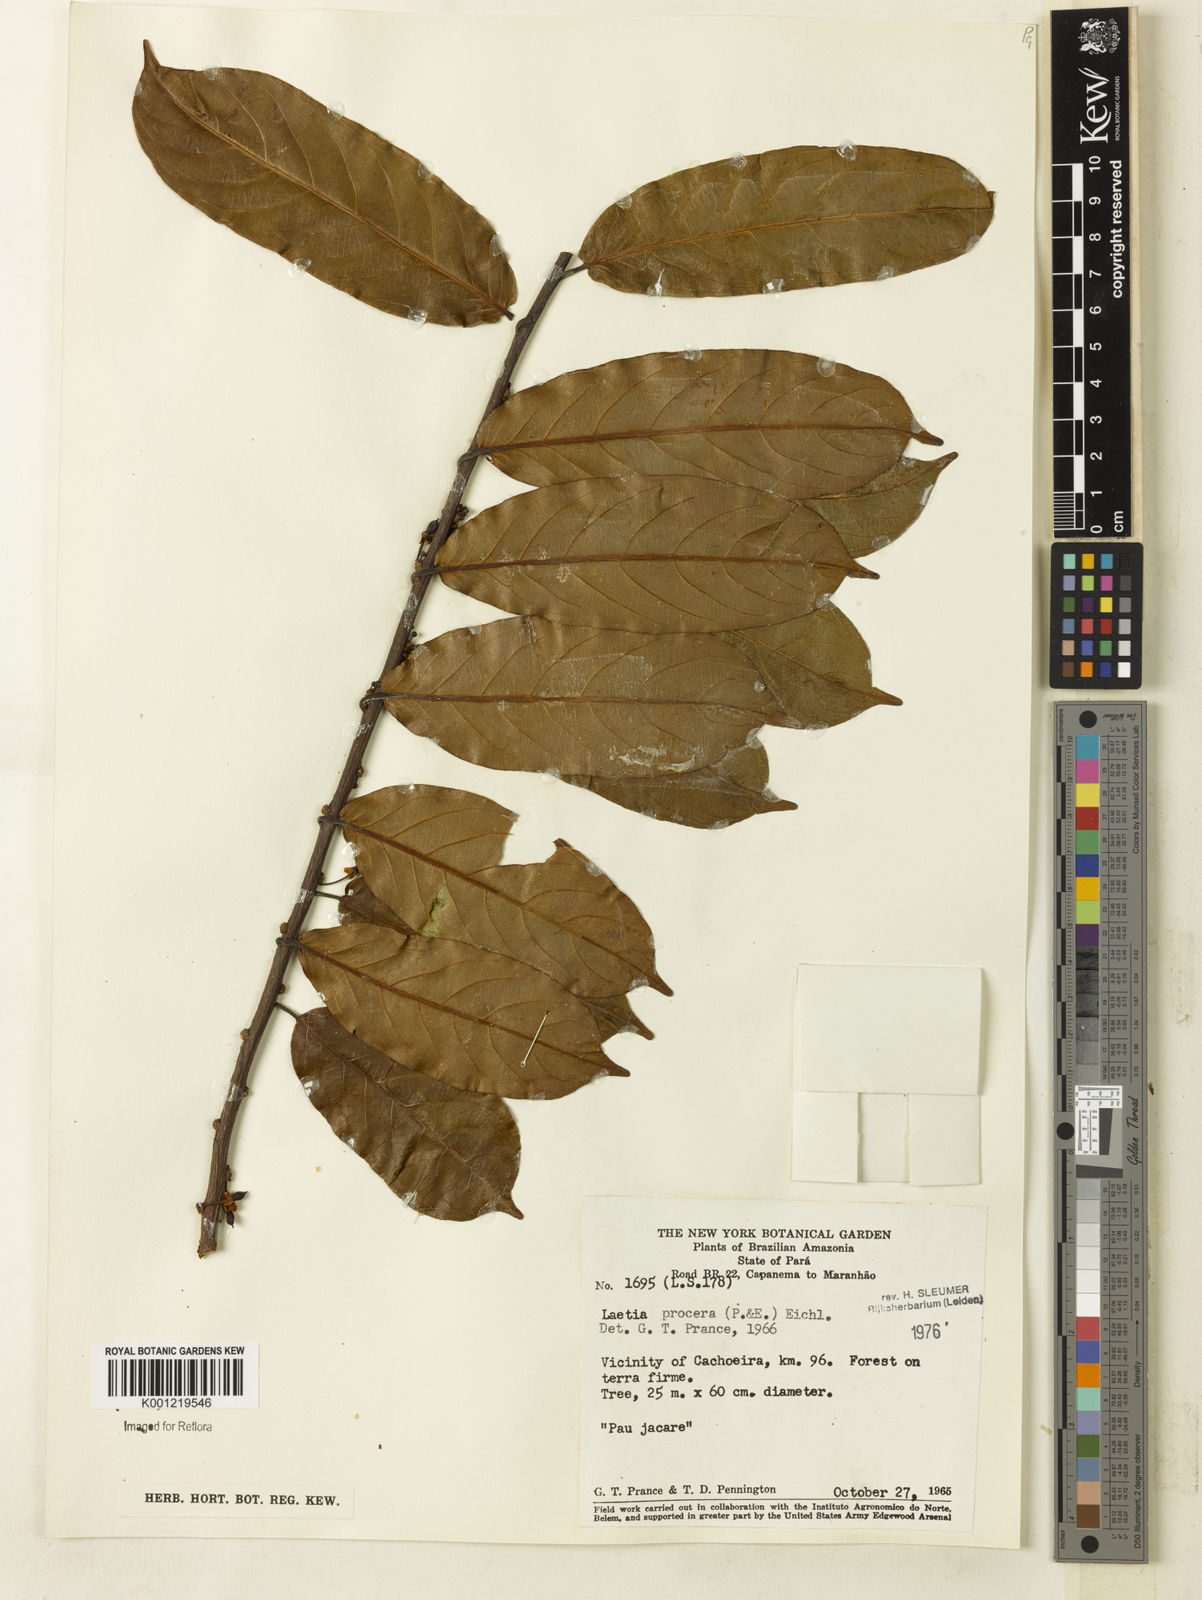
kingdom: Plantae
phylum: Tracheophyta
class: Magnoliopsida
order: Malpighiales
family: Salicaceae
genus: Casearia
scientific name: Casearia bicolor
